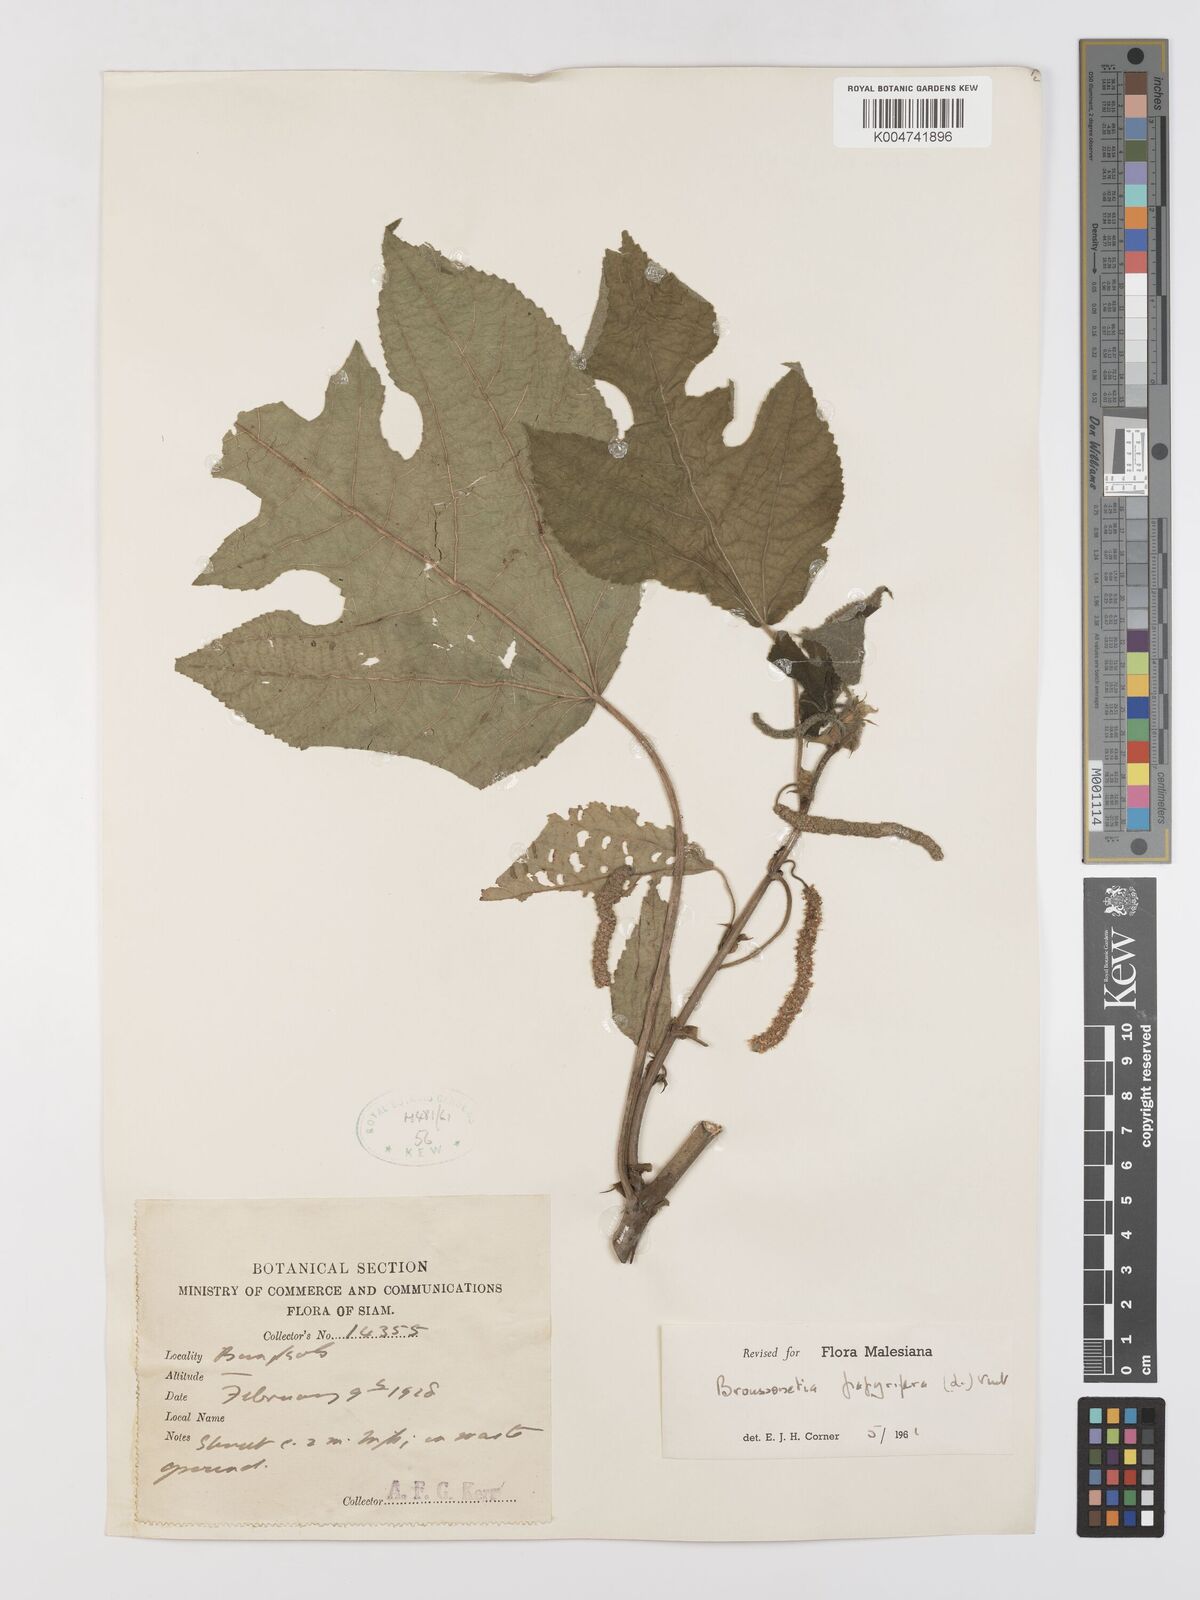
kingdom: Plantae
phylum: Tracheophyta
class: Magnoliopsida
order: Rosales
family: Moraceae
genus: Broussonetia
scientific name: Broussonetia papyrifera
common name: Paper mulberry
